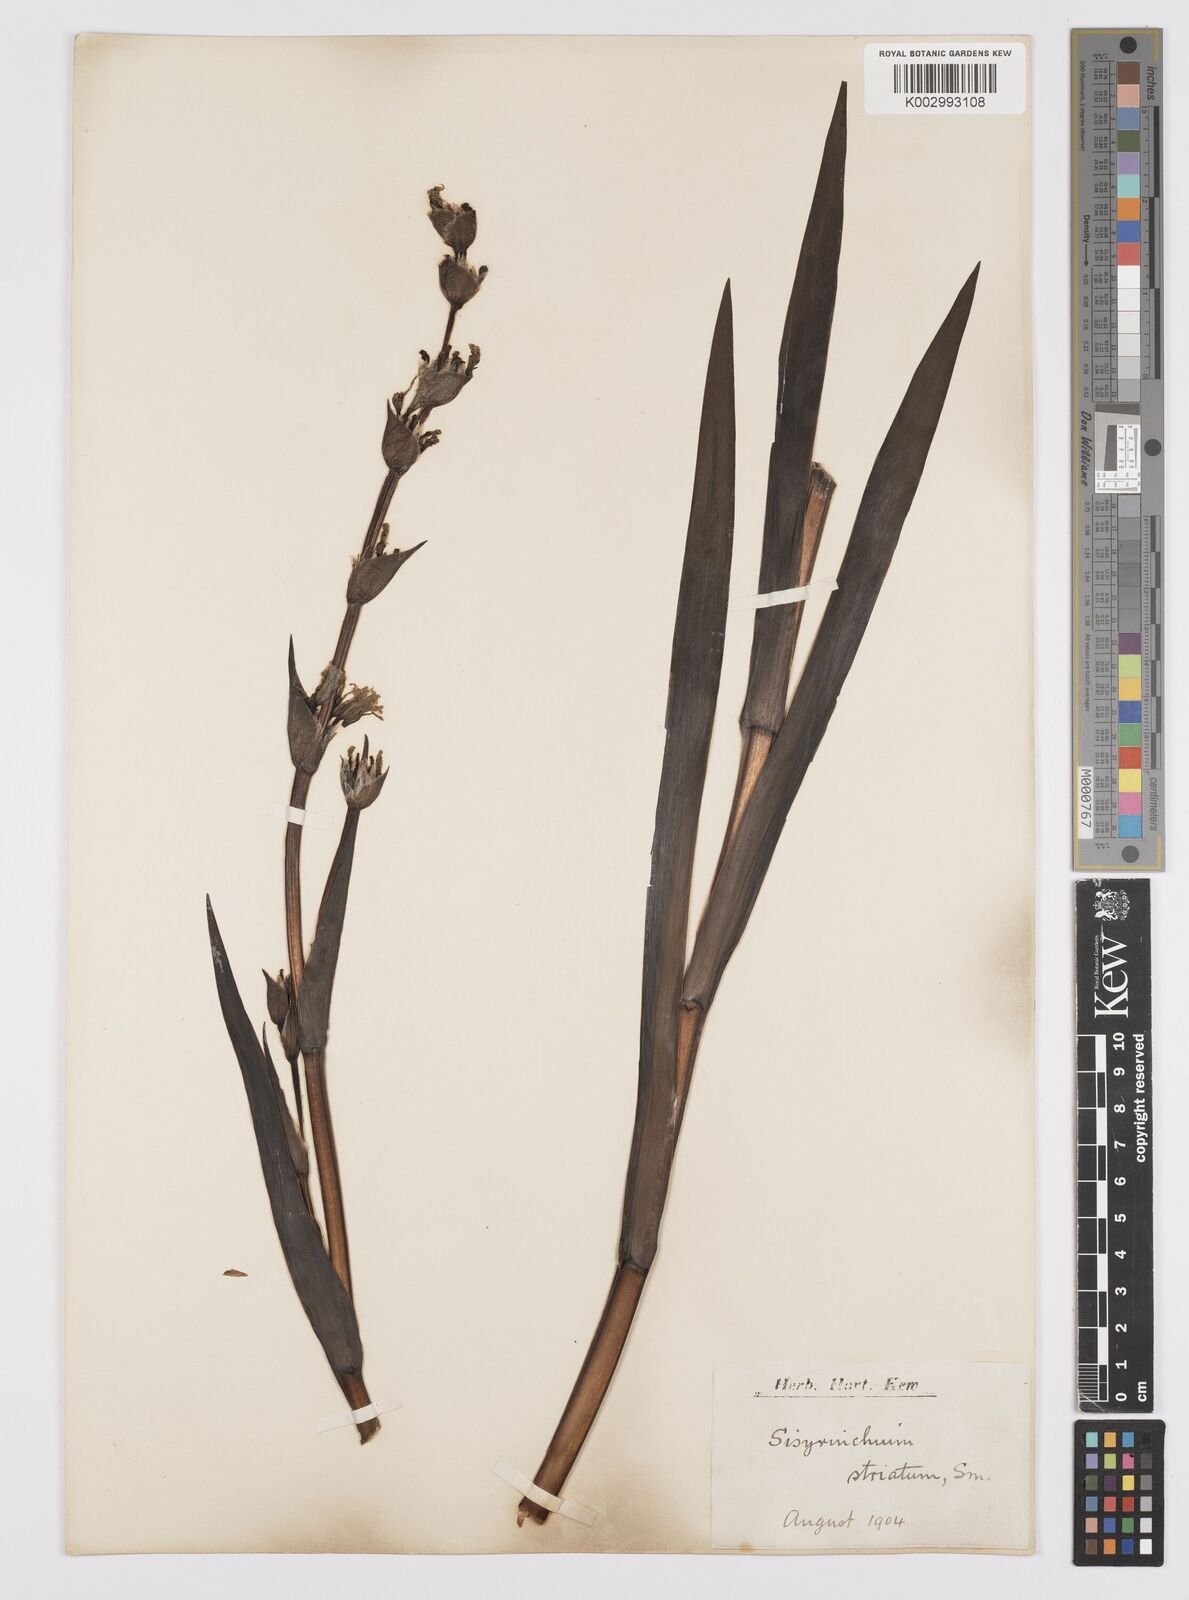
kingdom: Plantae
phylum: Tracheophyta
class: Liliopsida
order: Asparagales
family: Iridaceae
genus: Sisyrinchium
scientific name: Sisyrinchium striatum
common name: Pale yellow-eyed-grass
